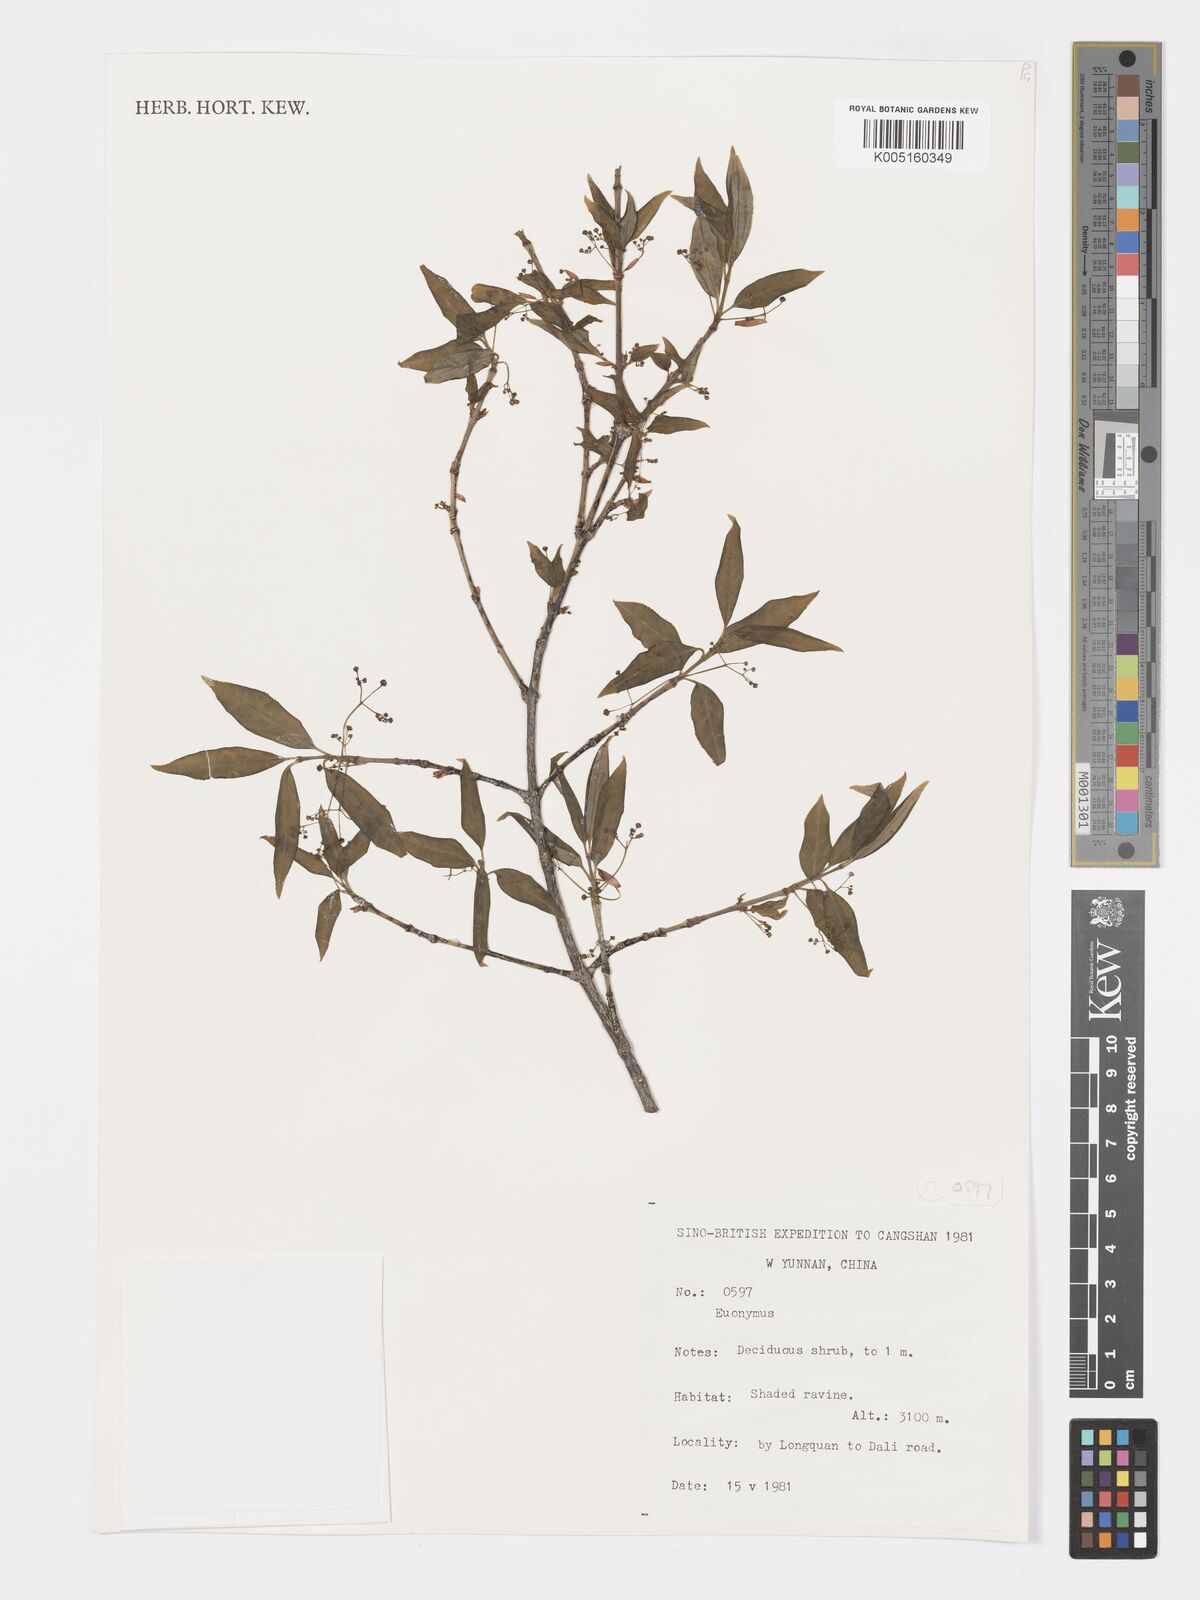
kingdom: Plantae
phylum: Tracheophyta
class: Magnoliopsida
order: Celastrales
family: Celastraceae
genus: Euonymus
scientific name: Euonymus
